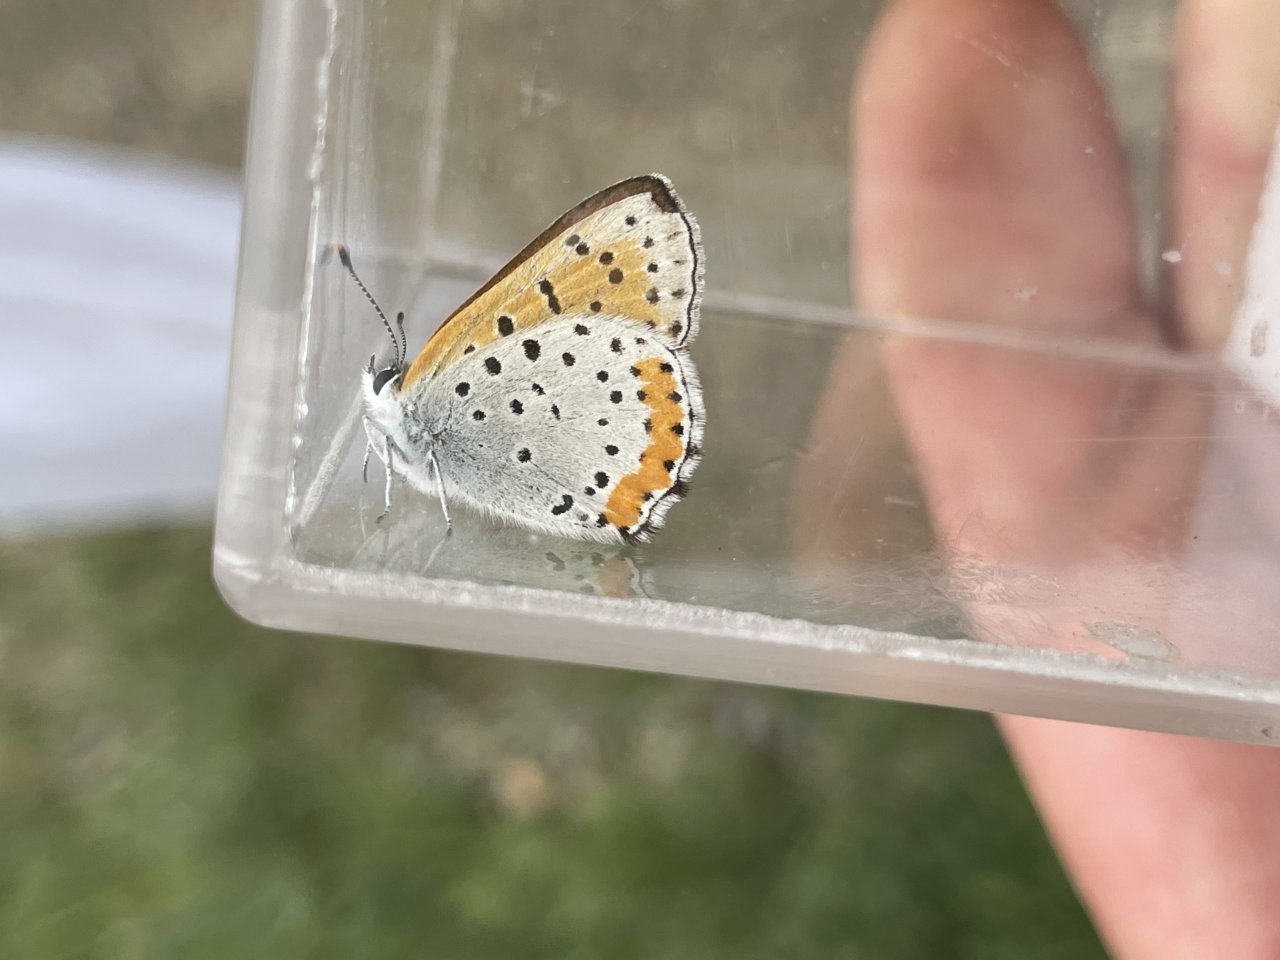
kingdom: Animalia
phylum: Arthropoda
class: Insecta
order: Lepidoptera
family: Sesiidae
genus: Sesia
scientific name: Sesia Lycaena hyllus
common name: Bronze Copper
